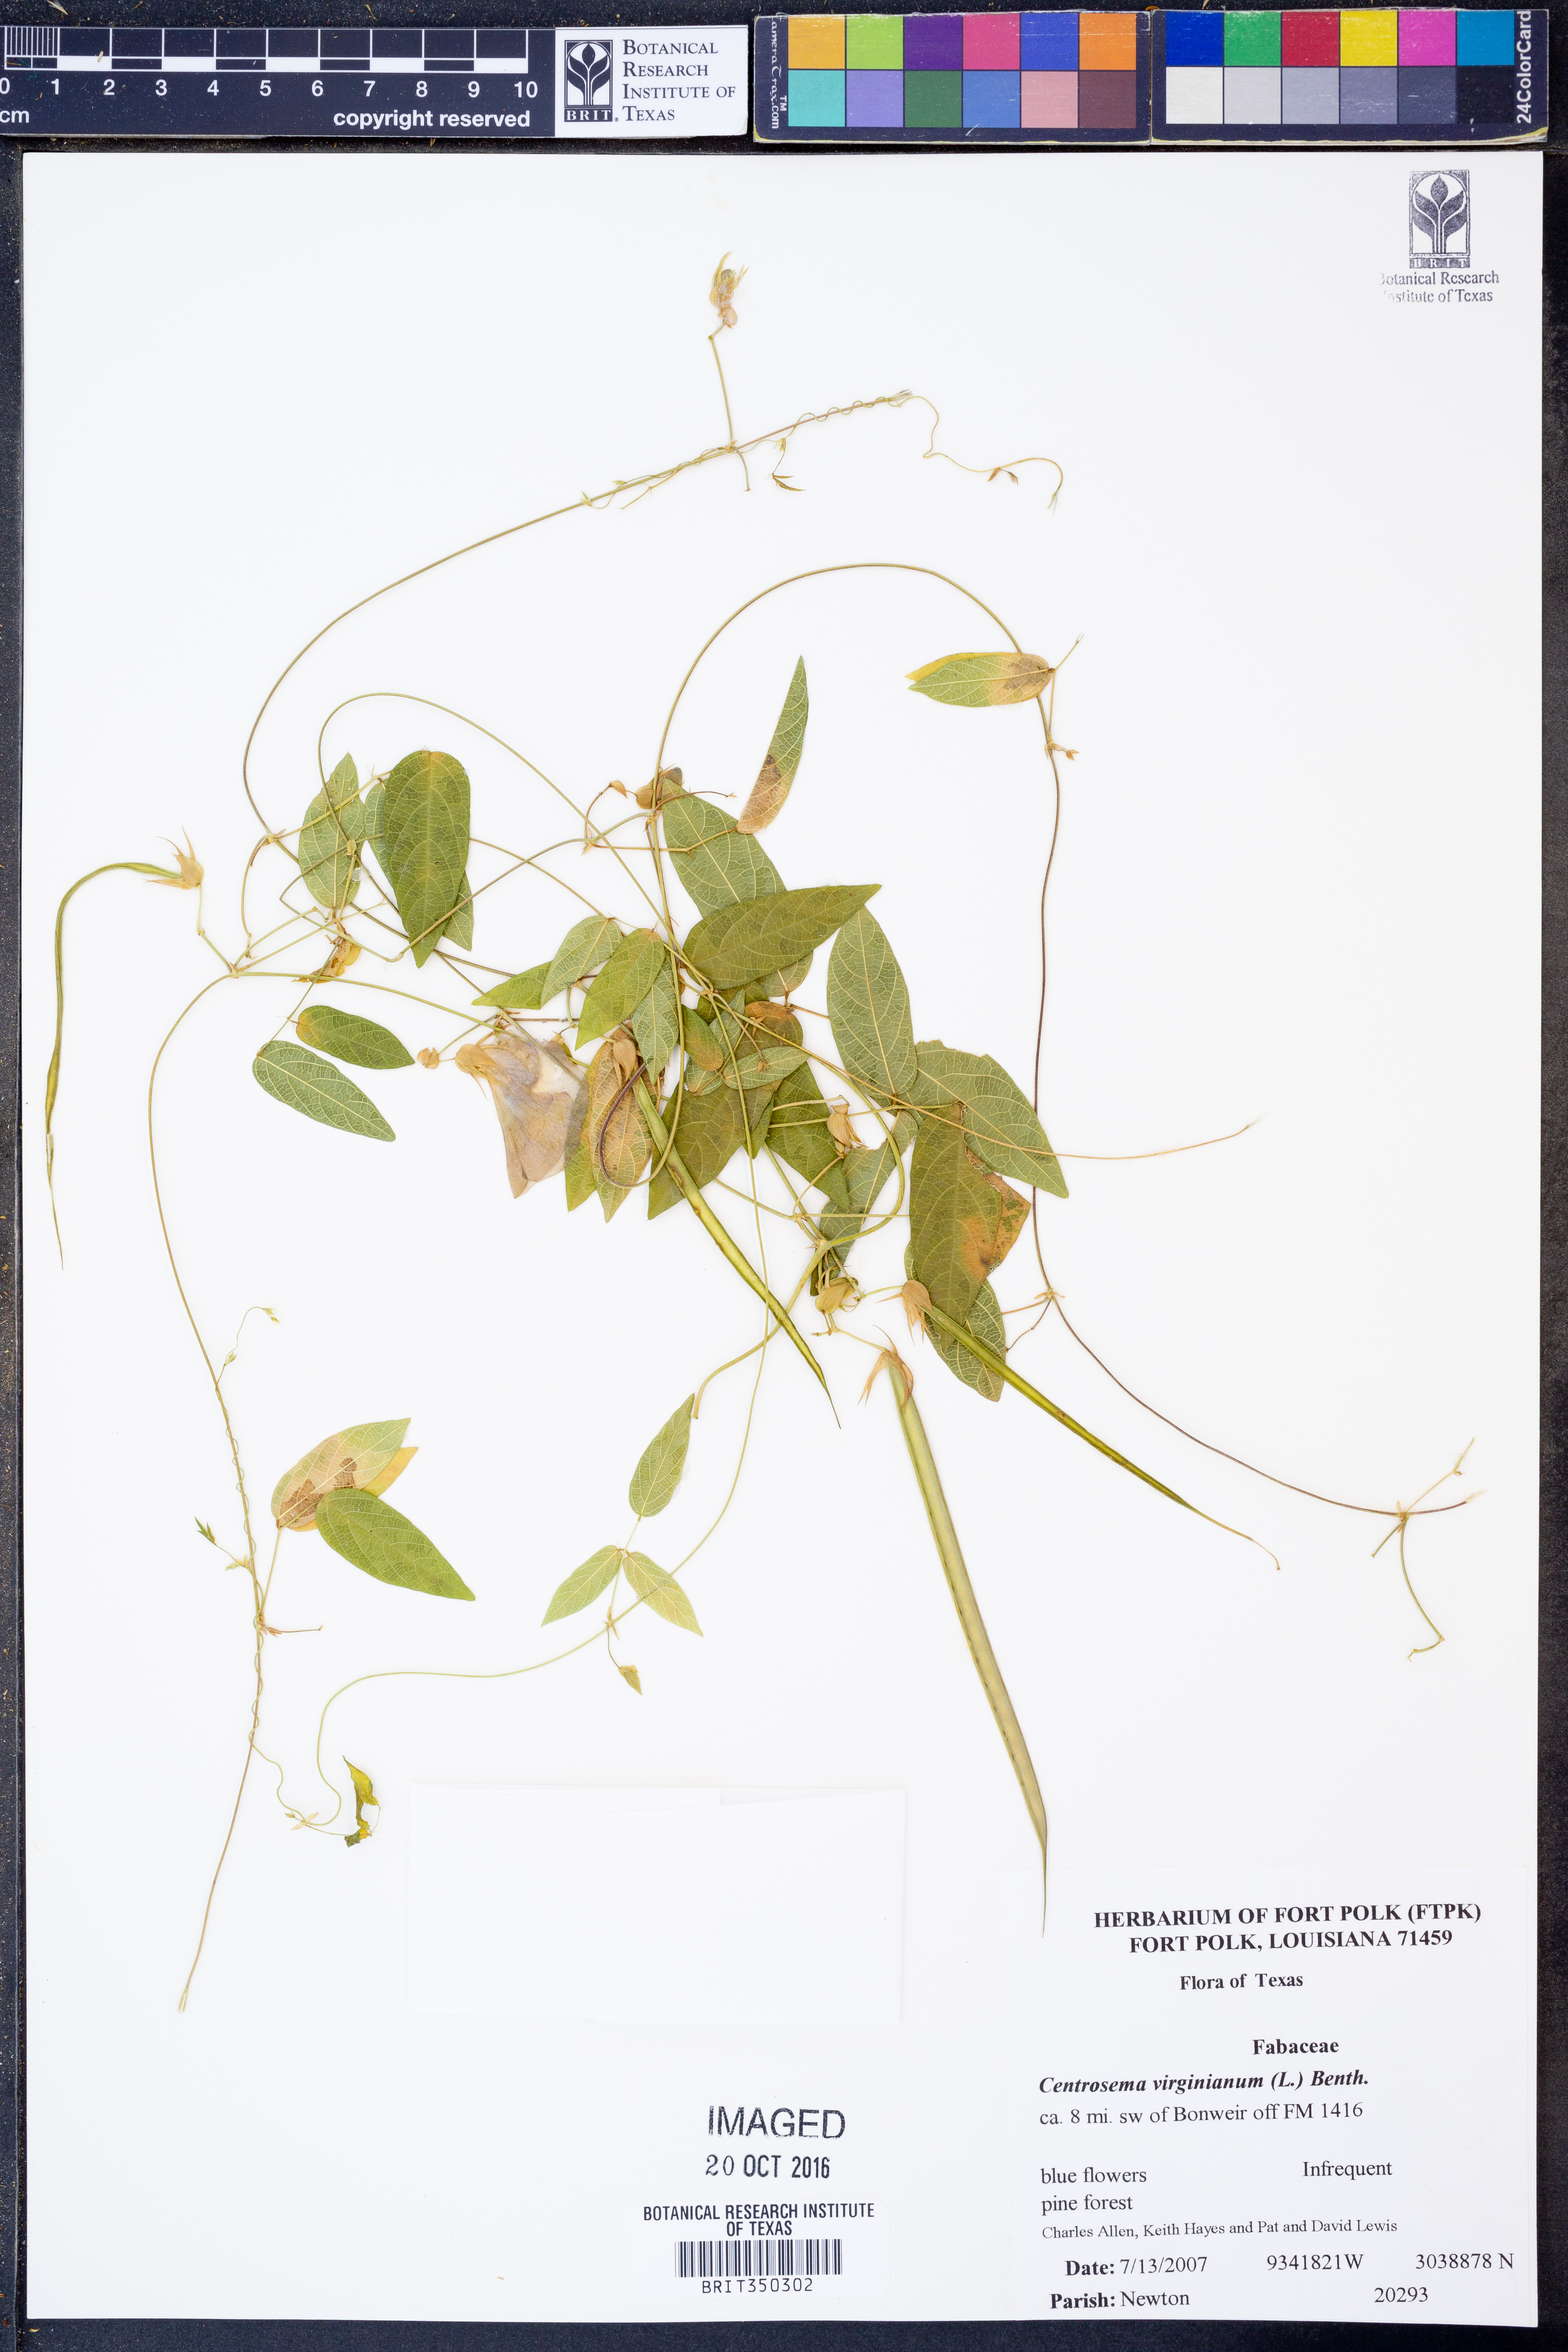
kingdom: Plantae
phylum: Tracheophyta
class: Magnoliopsida
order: Fabales
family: Fabaceae
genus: Centrosema
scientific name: Centrosema virginianum
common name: Butterfly-pea
